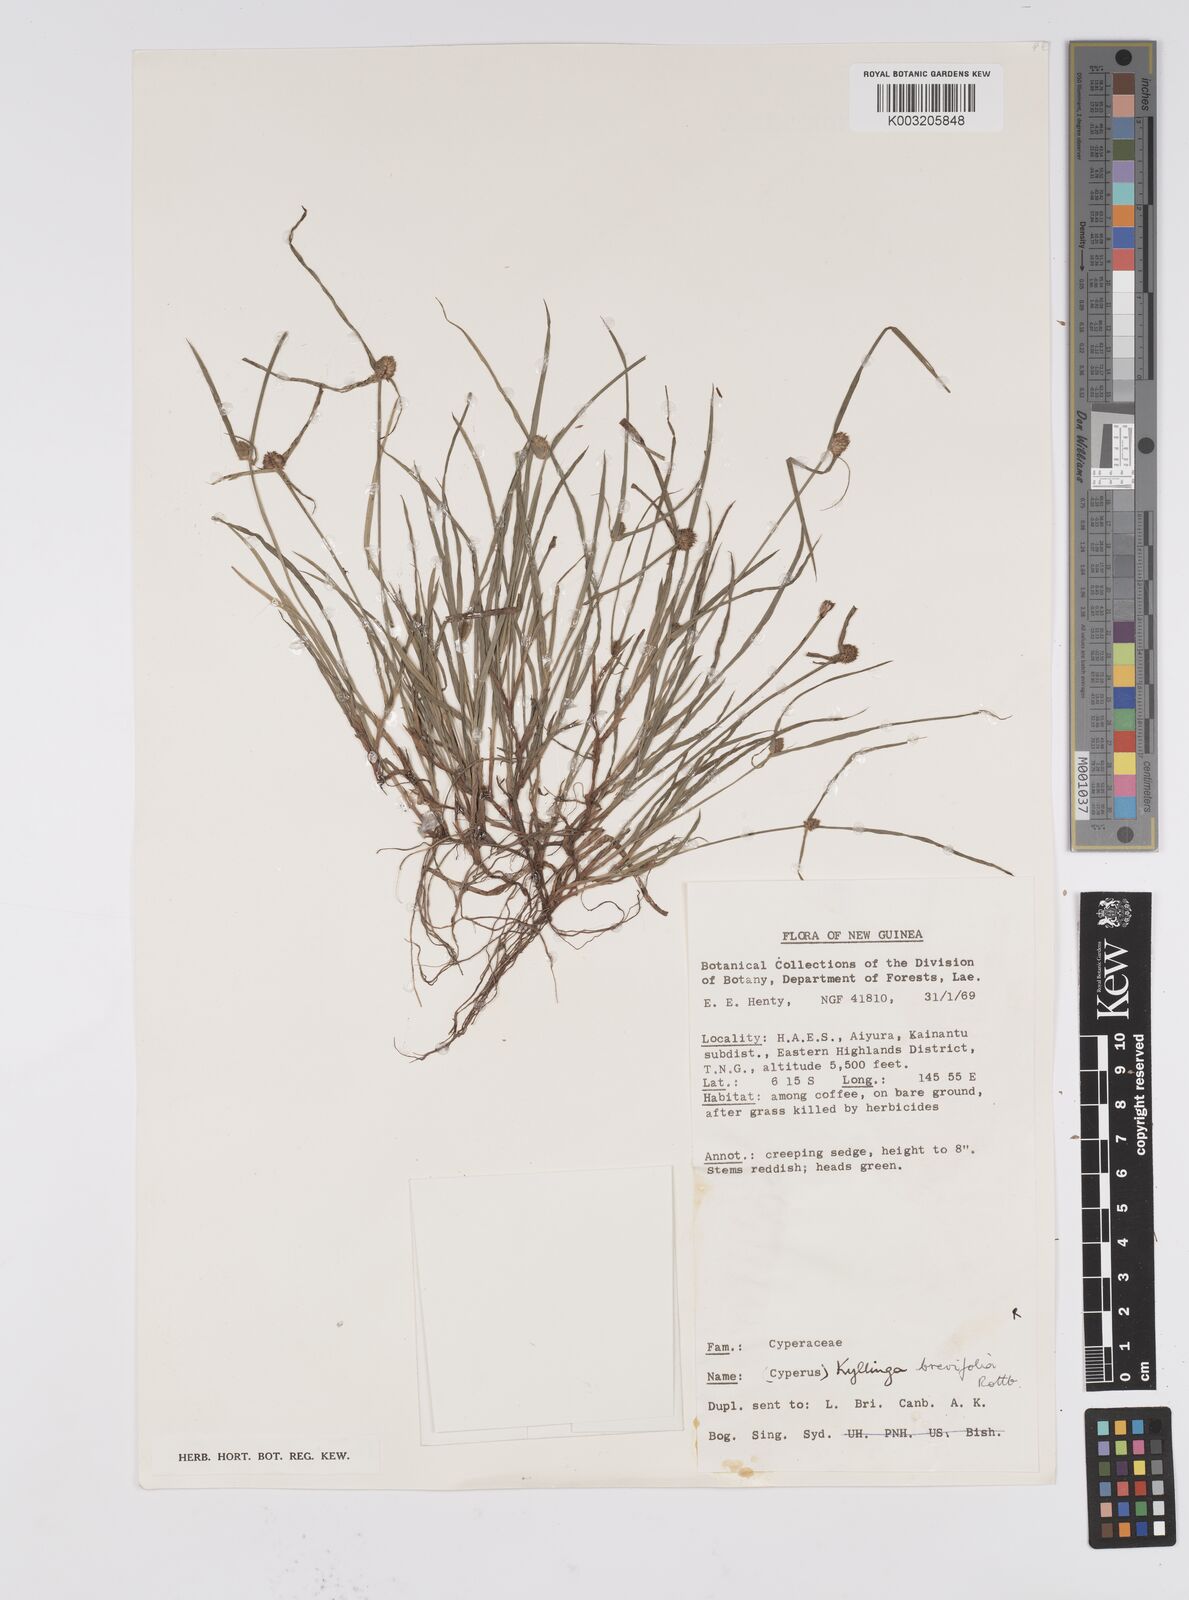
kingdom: Plantae
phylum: Tracheophyta
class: Liliopsida
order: Poales
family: Cyperaceae
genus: Cyperus
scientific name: Cyperus brevifolius
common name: Globe kyllinga
